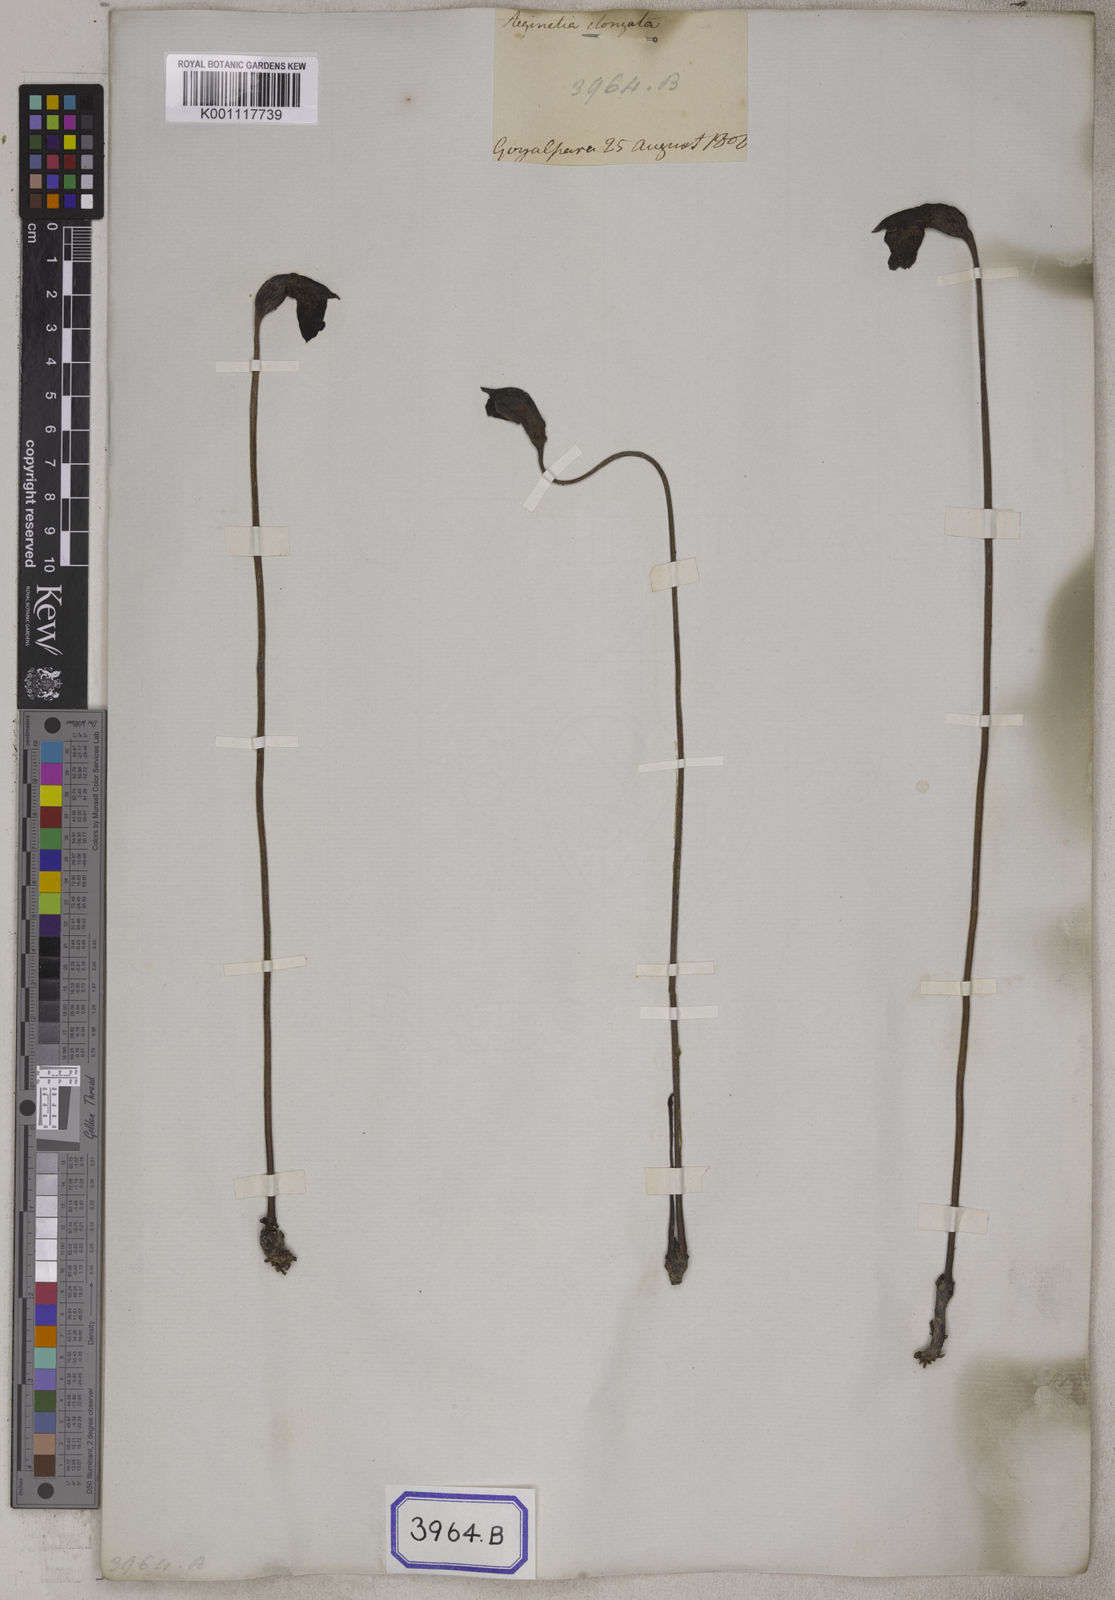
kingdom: Plantae
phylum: Tracheophyta
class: Magnoliopsida
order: Lamiales
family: Orobanchaceae
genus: Aeginetia
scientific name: Aeginetia
